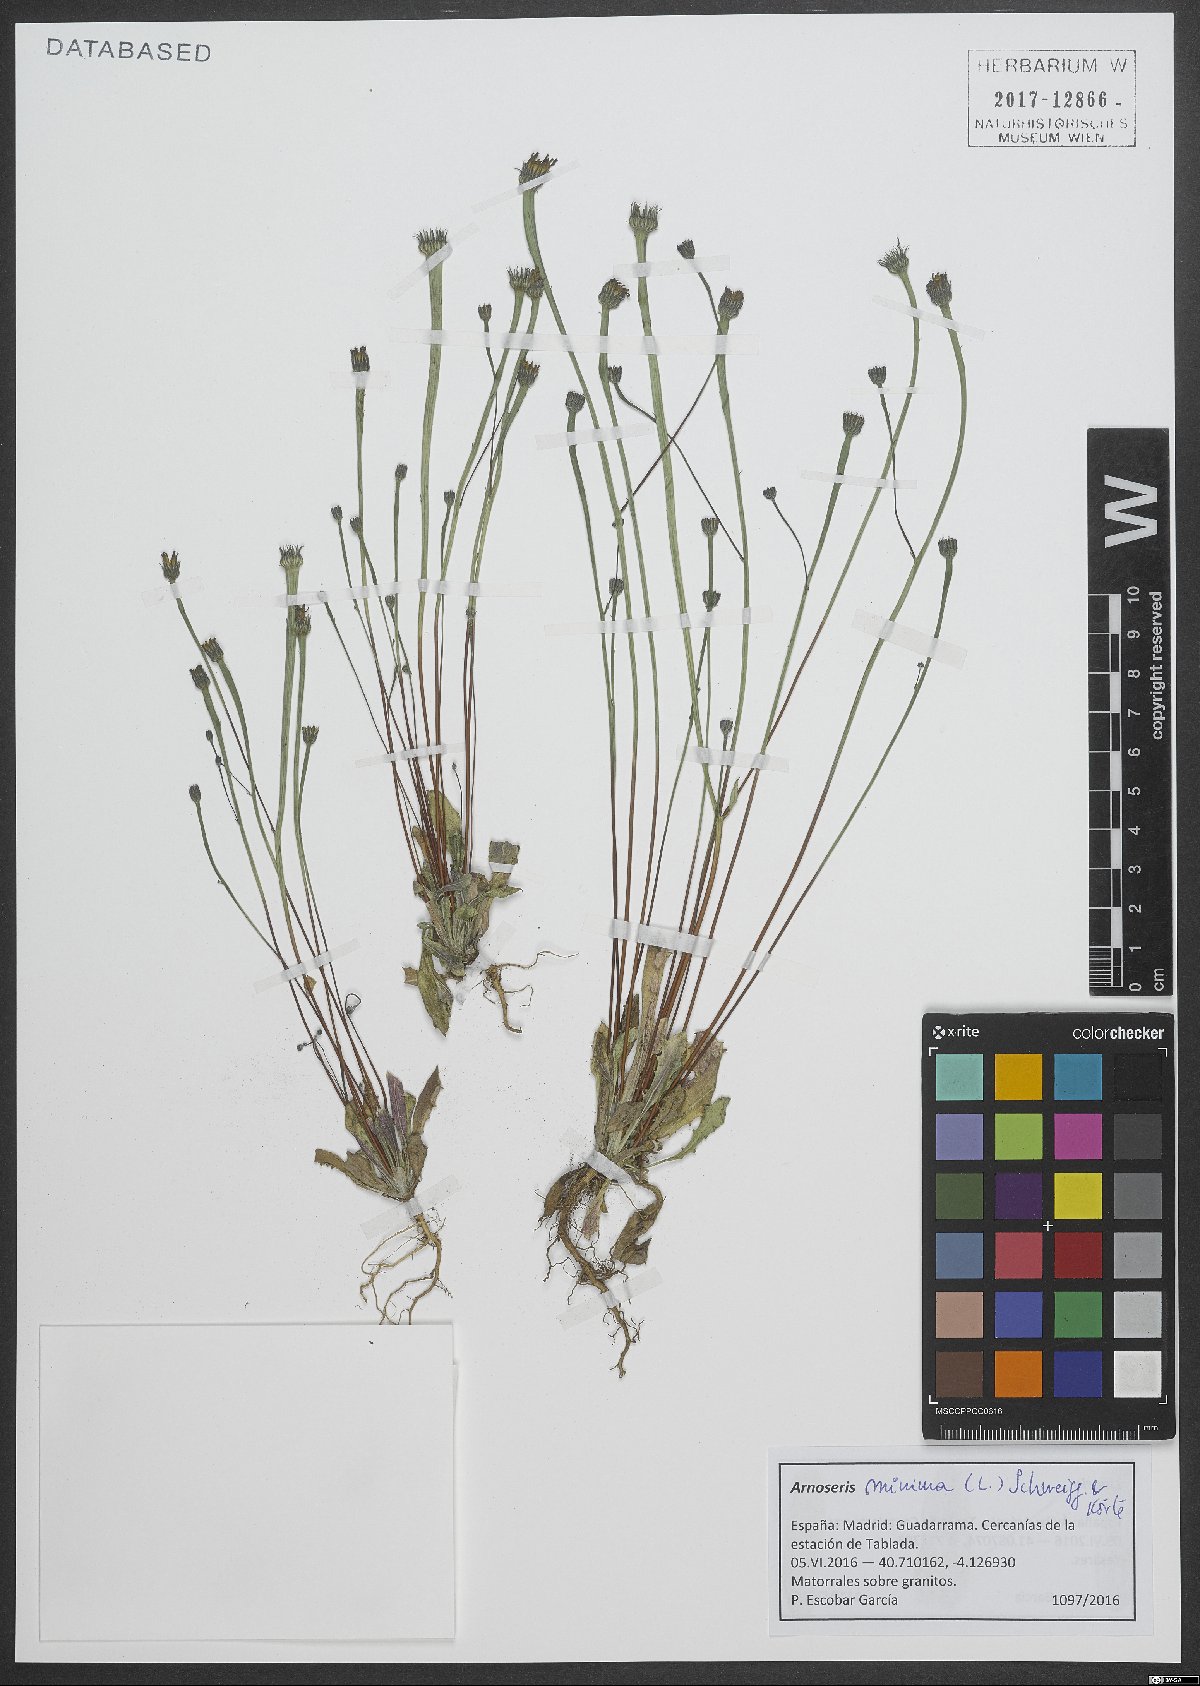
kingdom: Plantae
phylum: Tracheophyta
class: Magnoliopsida
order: Asterales
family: Asteraceae
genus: Arnoseris
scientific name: Arnoseris minima
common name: Lamb's succory
